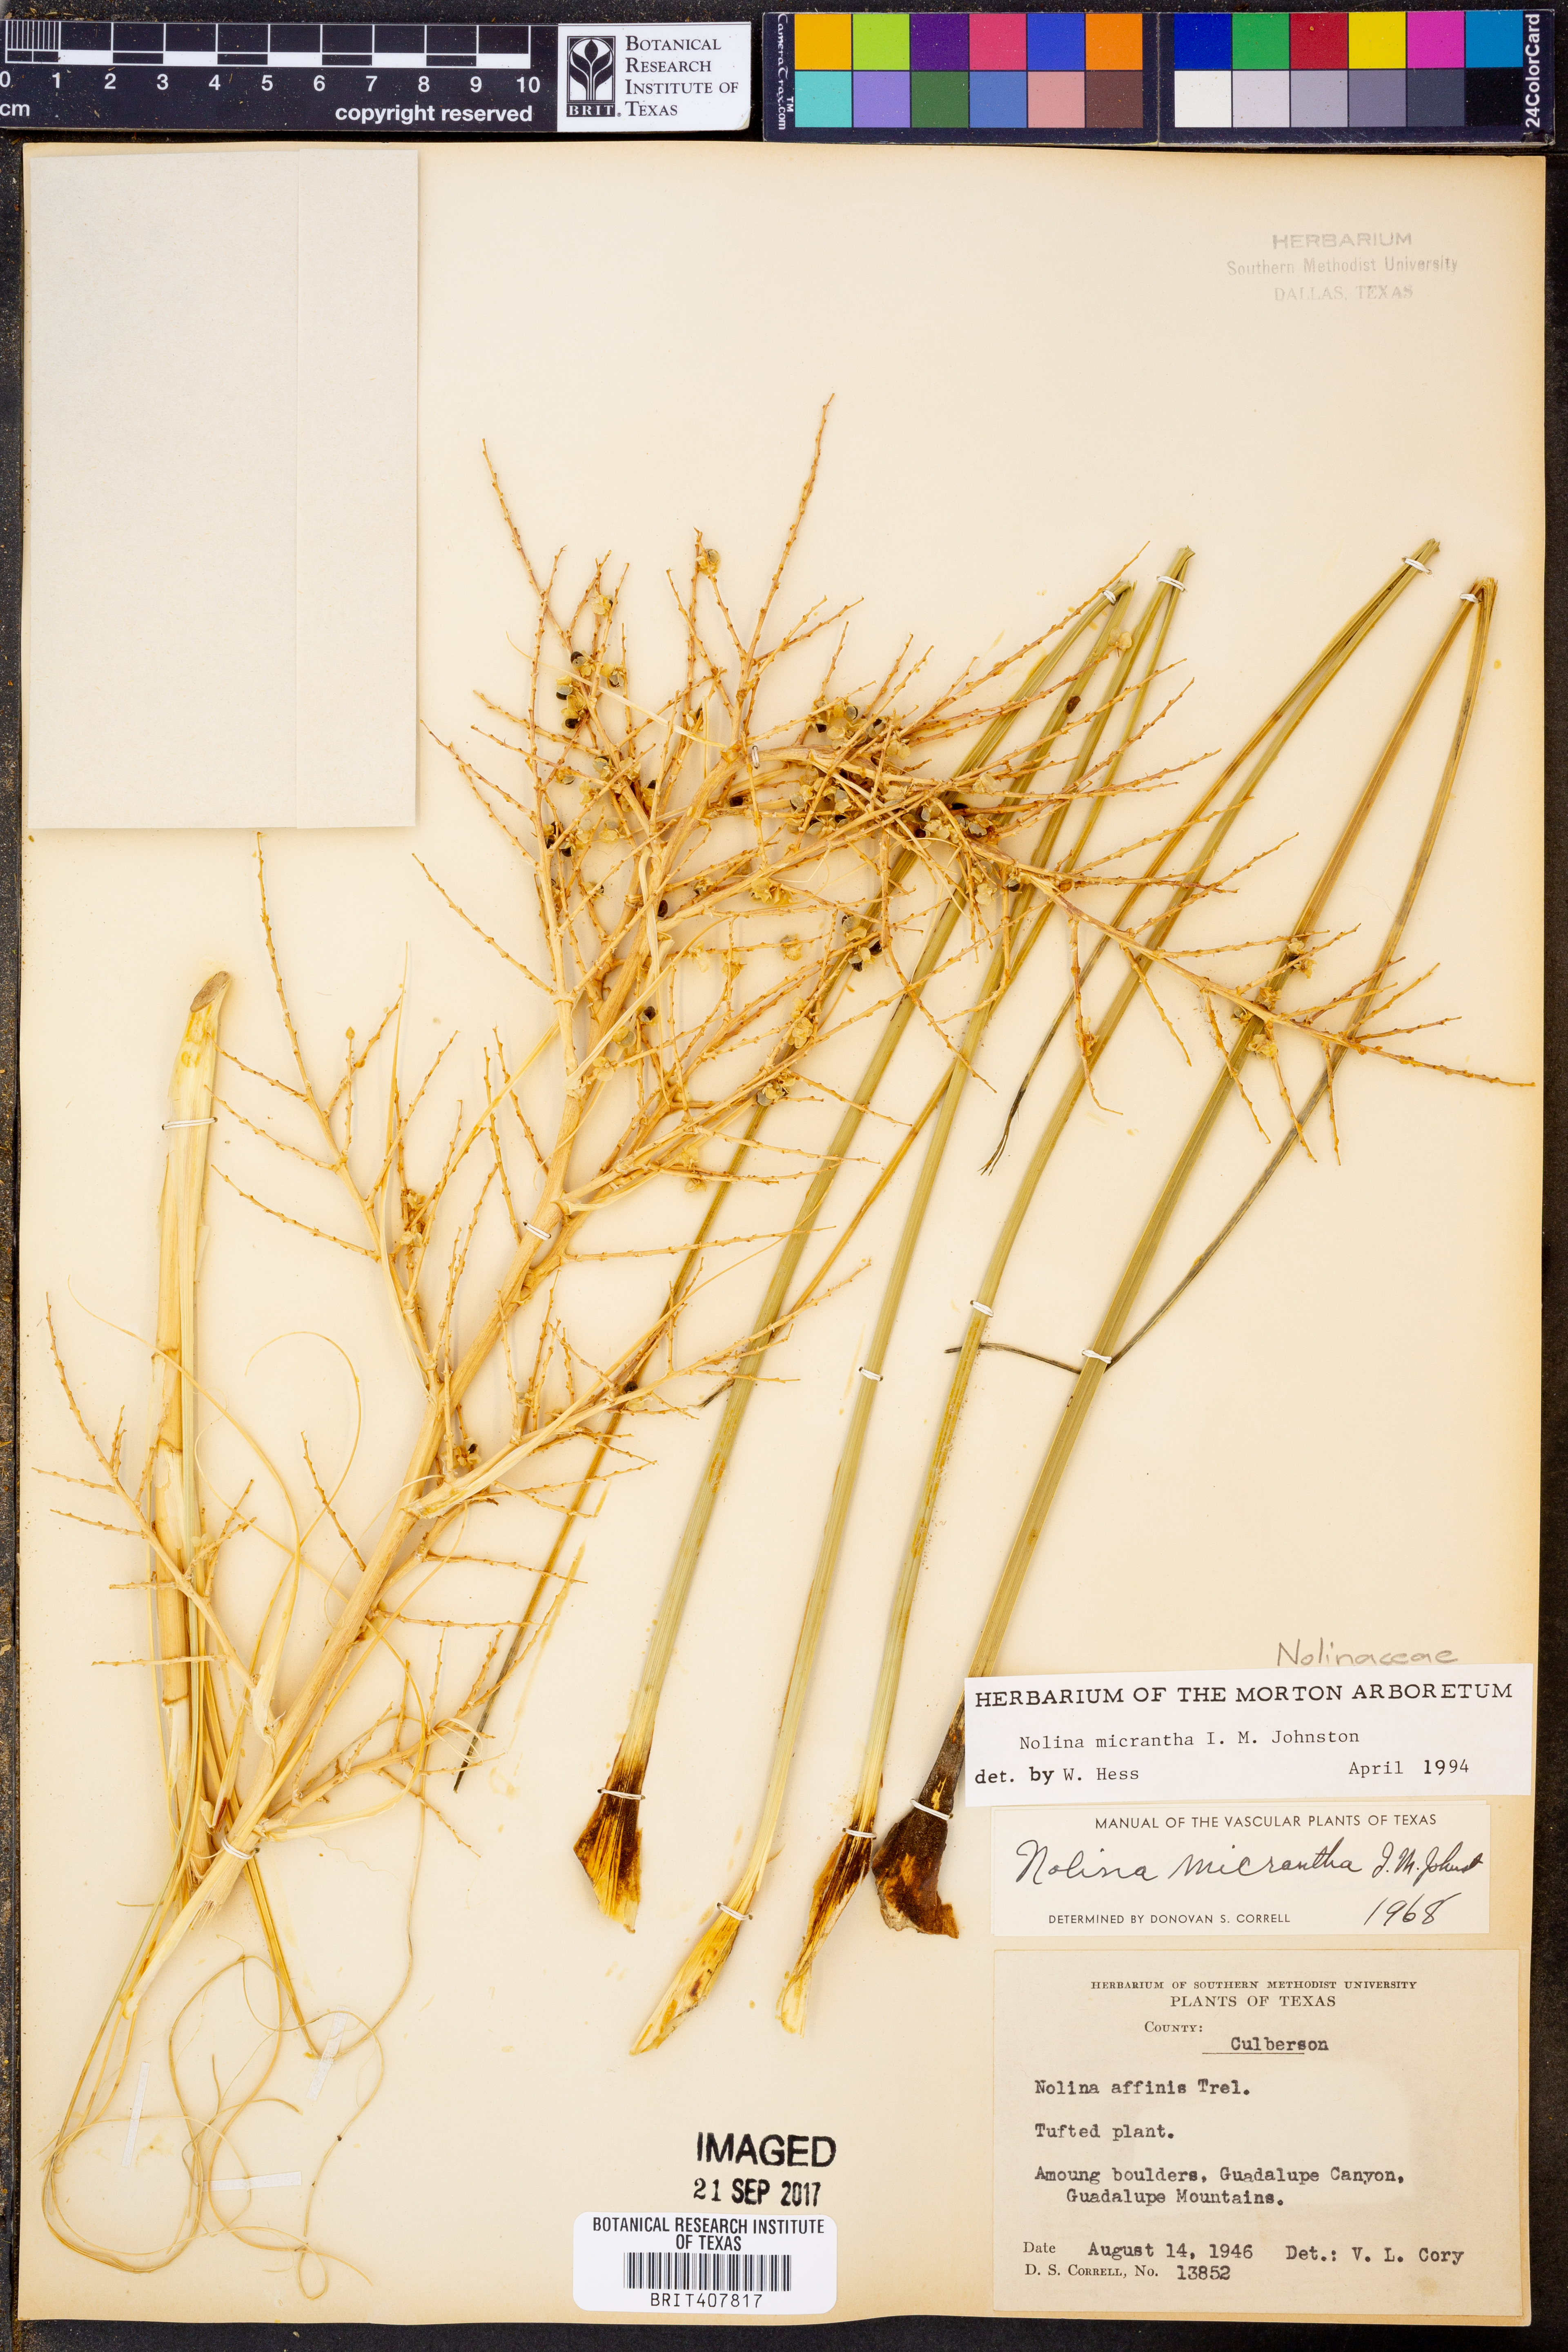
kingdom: Plantae
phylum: Tracheophyta
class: Liliopsida
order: Asparagales
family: Asparagaceae
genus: Nolina
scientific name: Nolina micrantha
